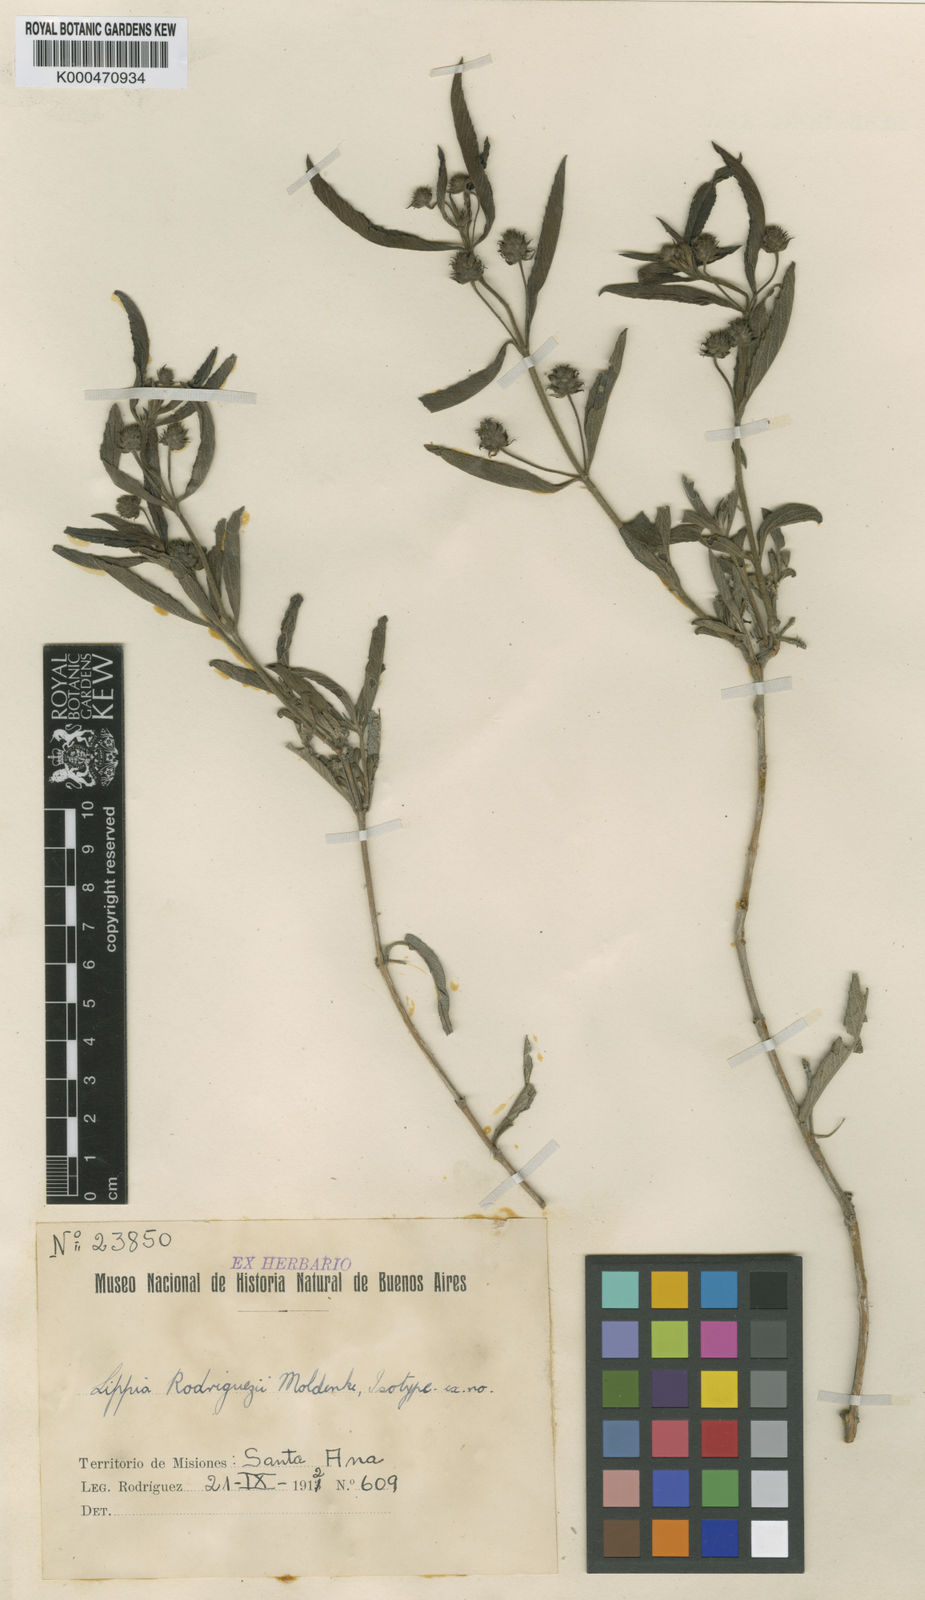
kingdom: Plantae
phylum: Tracheophyta
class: Magnoliopsida
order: Lamiales
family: Verbenaceae
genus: Lippia
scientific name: Lippia rodriguezii
